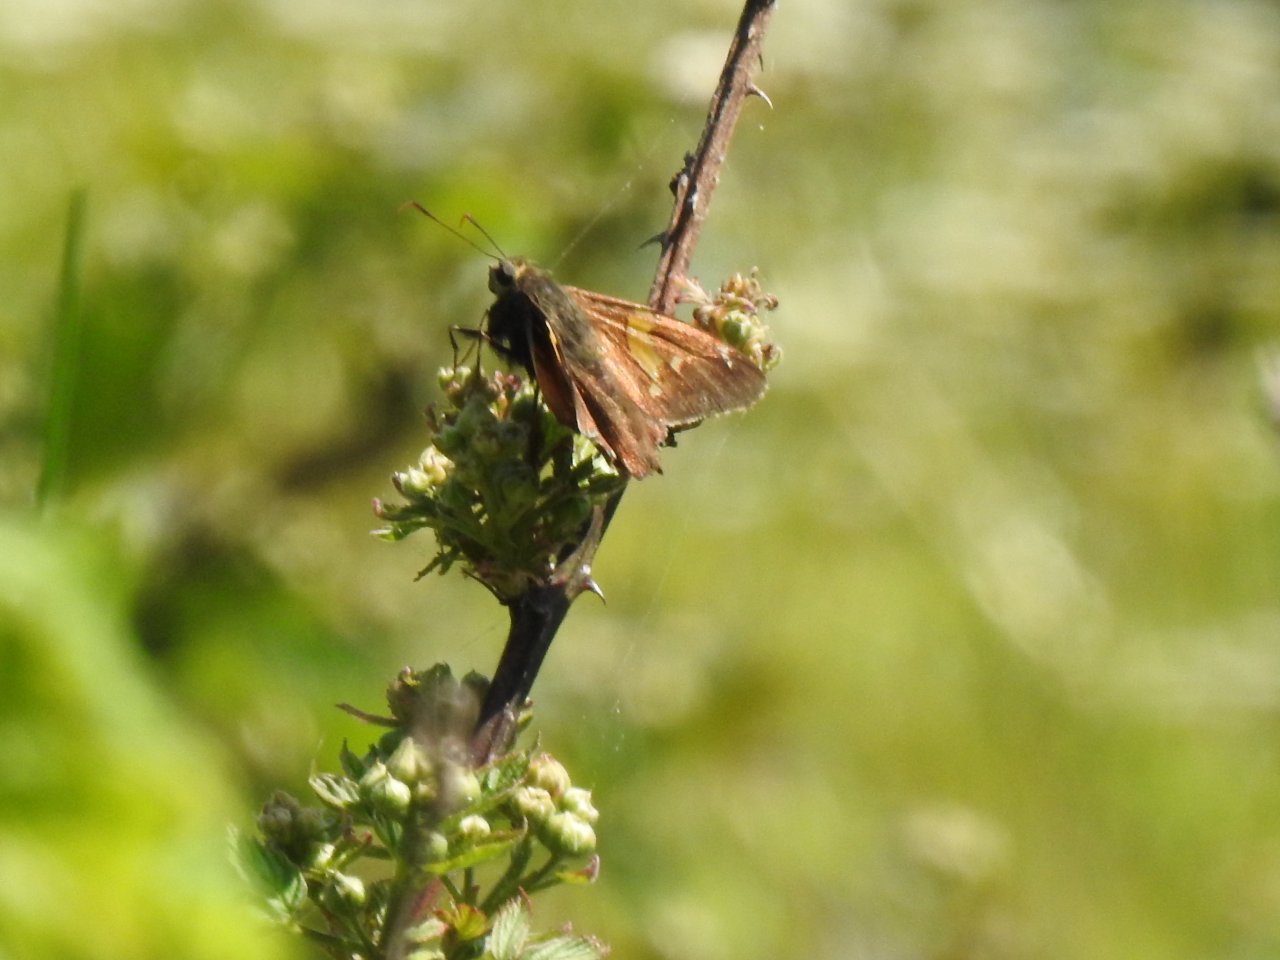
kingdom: Animalia
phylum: Arthropoda
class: Insecta
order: Lepidoptera
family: Hesperiidae
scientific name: Hesperiidae
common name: Skippers
